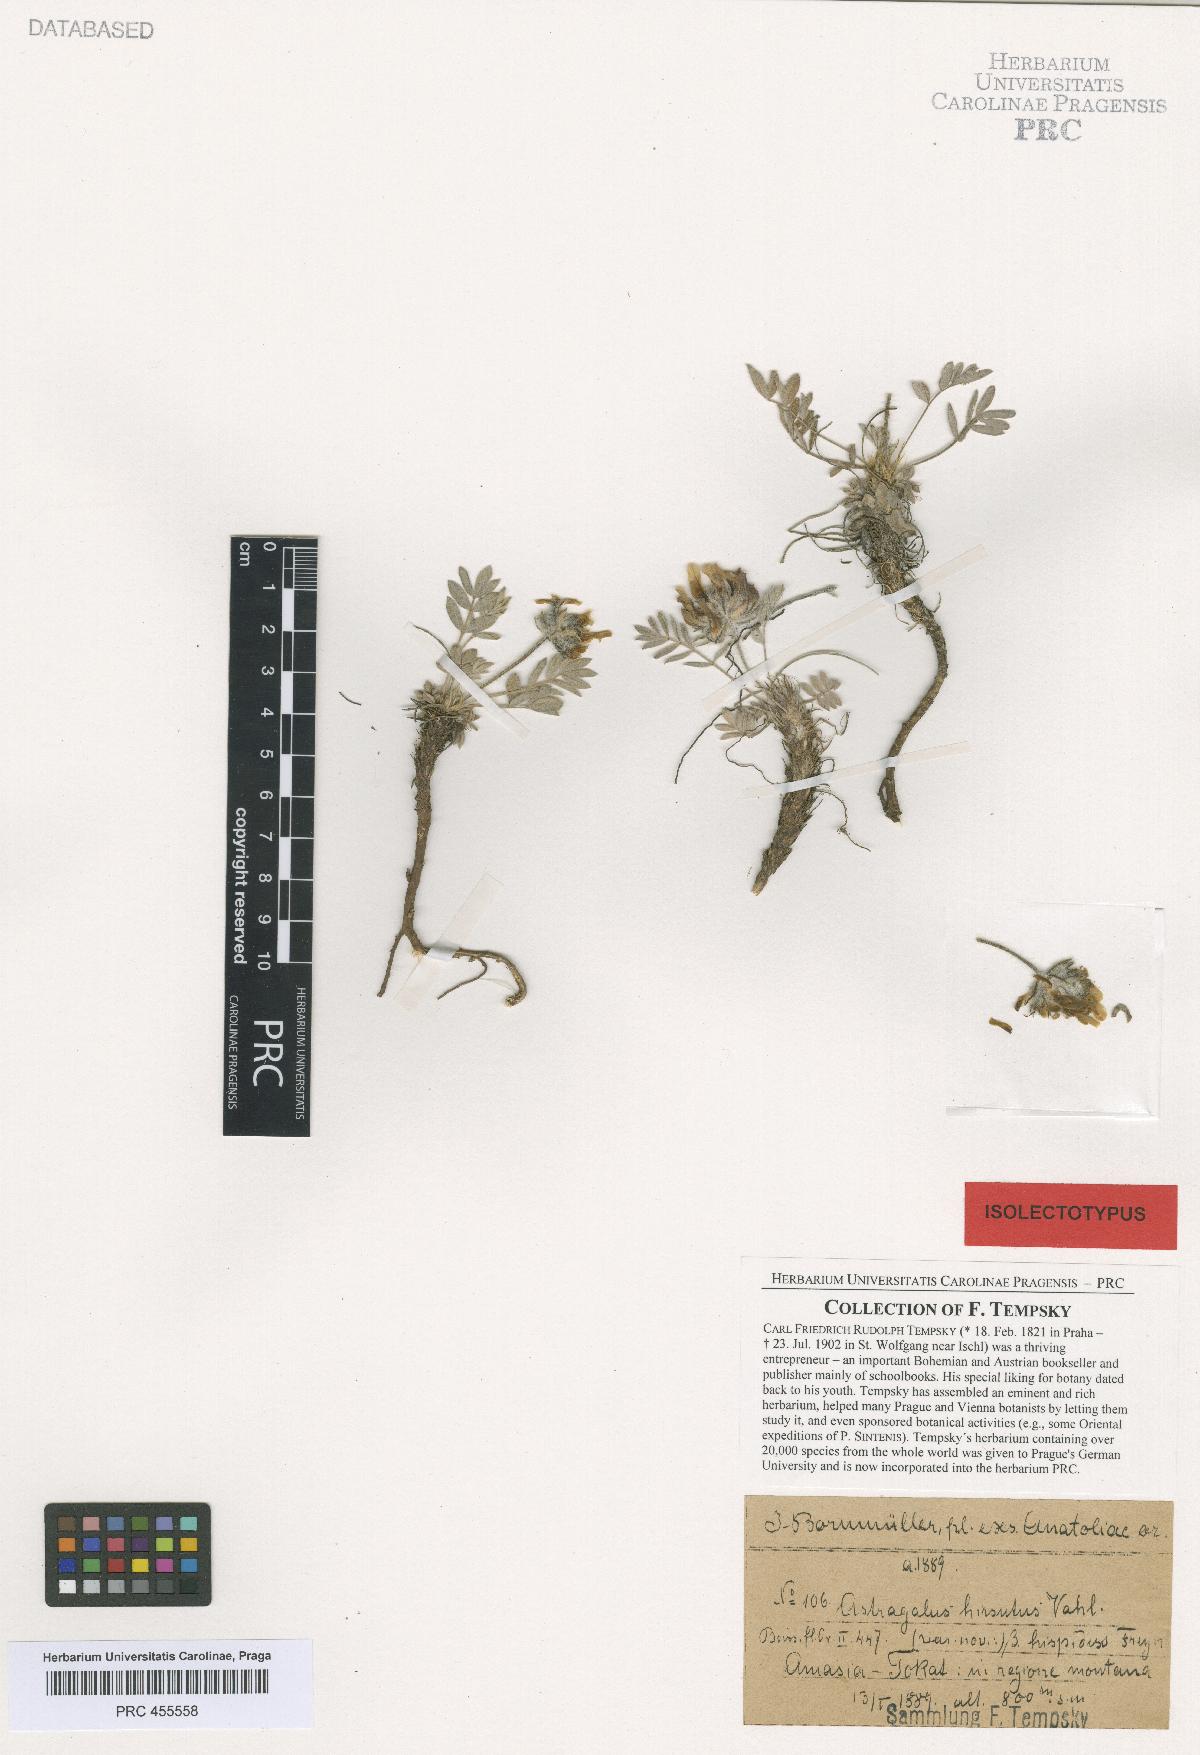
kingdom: Plantae
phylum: Tracheophyta
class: Magnoliopsida
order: Fabales
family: Fabaceae
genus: Astragalus
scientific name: Astragalus hirsutus
